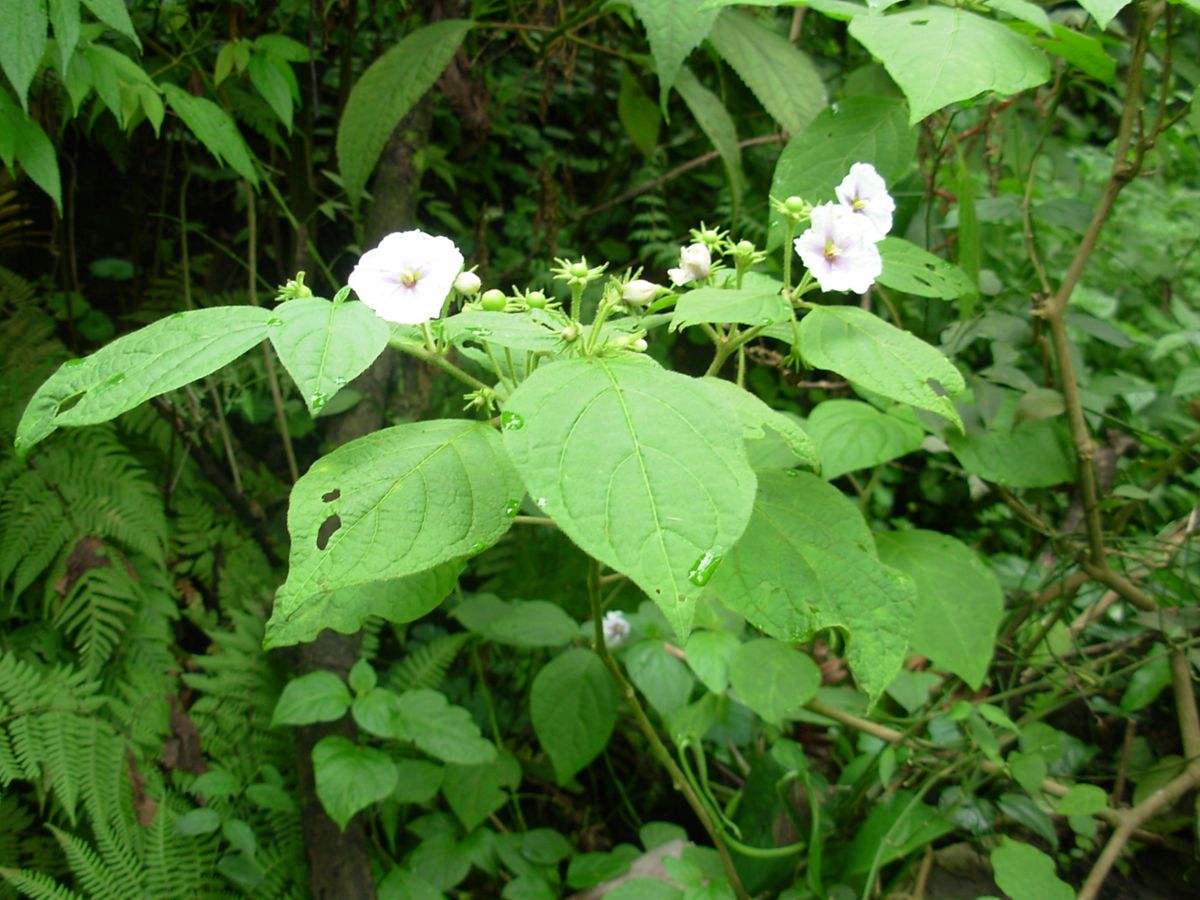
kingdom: Plantae
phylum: Tracheophyta
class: Magnoliopsida
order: Solanales
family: Solanaceae
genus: Lycianthes
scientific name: Lycianthes arrazolensis
